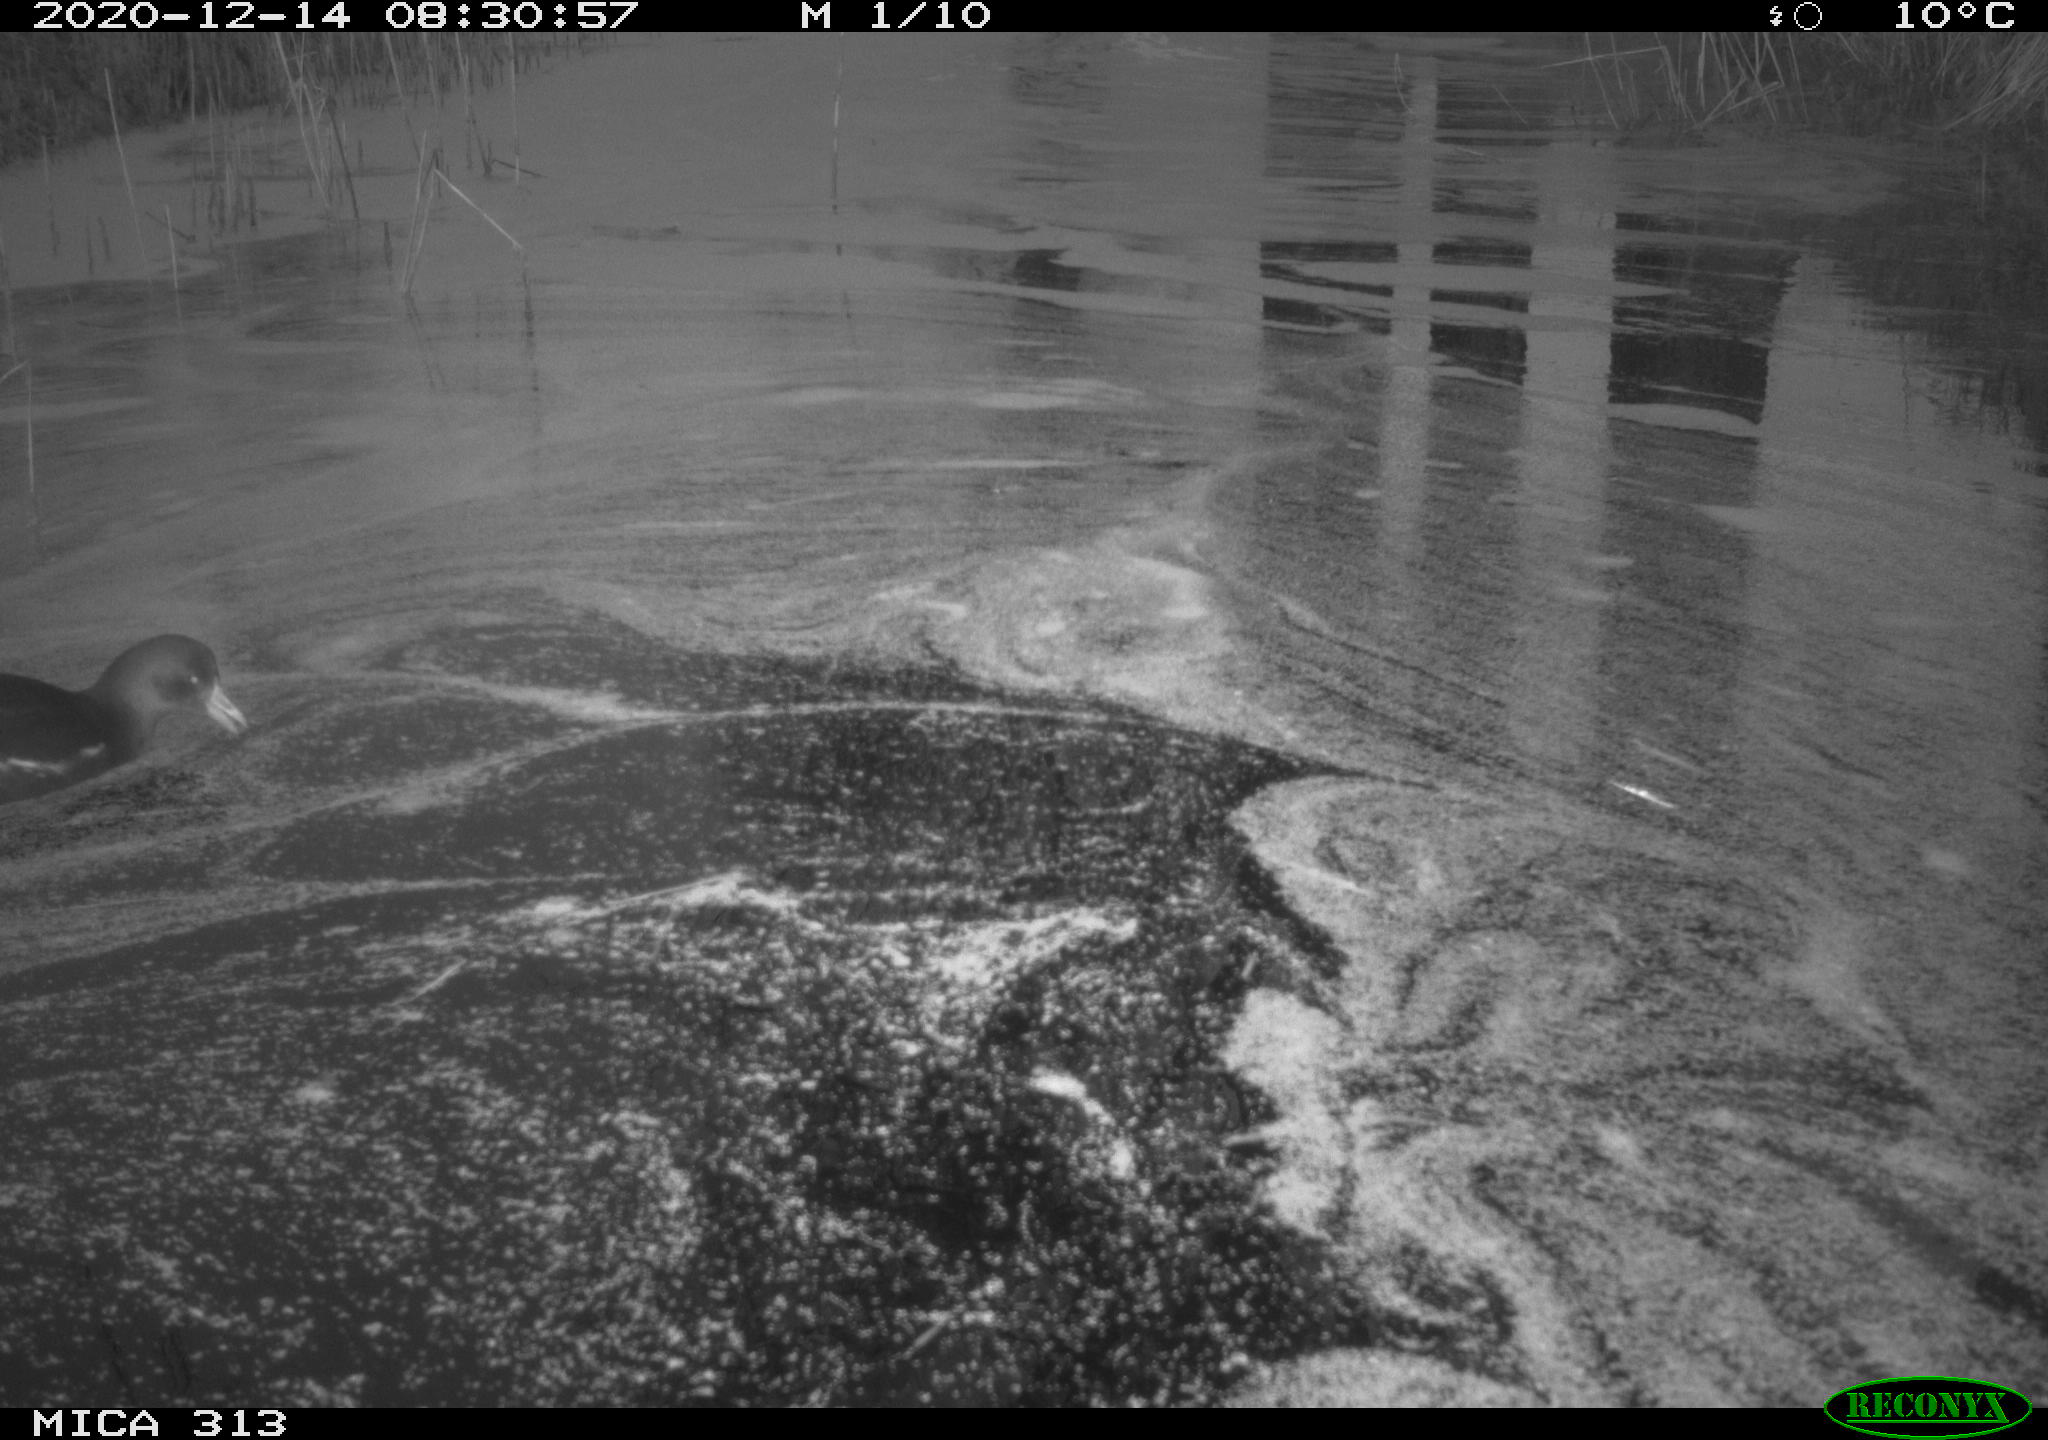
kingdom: Animalia
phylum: Chordata
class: Aves
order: Gruiformes
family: Rallidae
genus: Gallinula
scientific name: Gallinula chloropus
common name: Common moorhen
